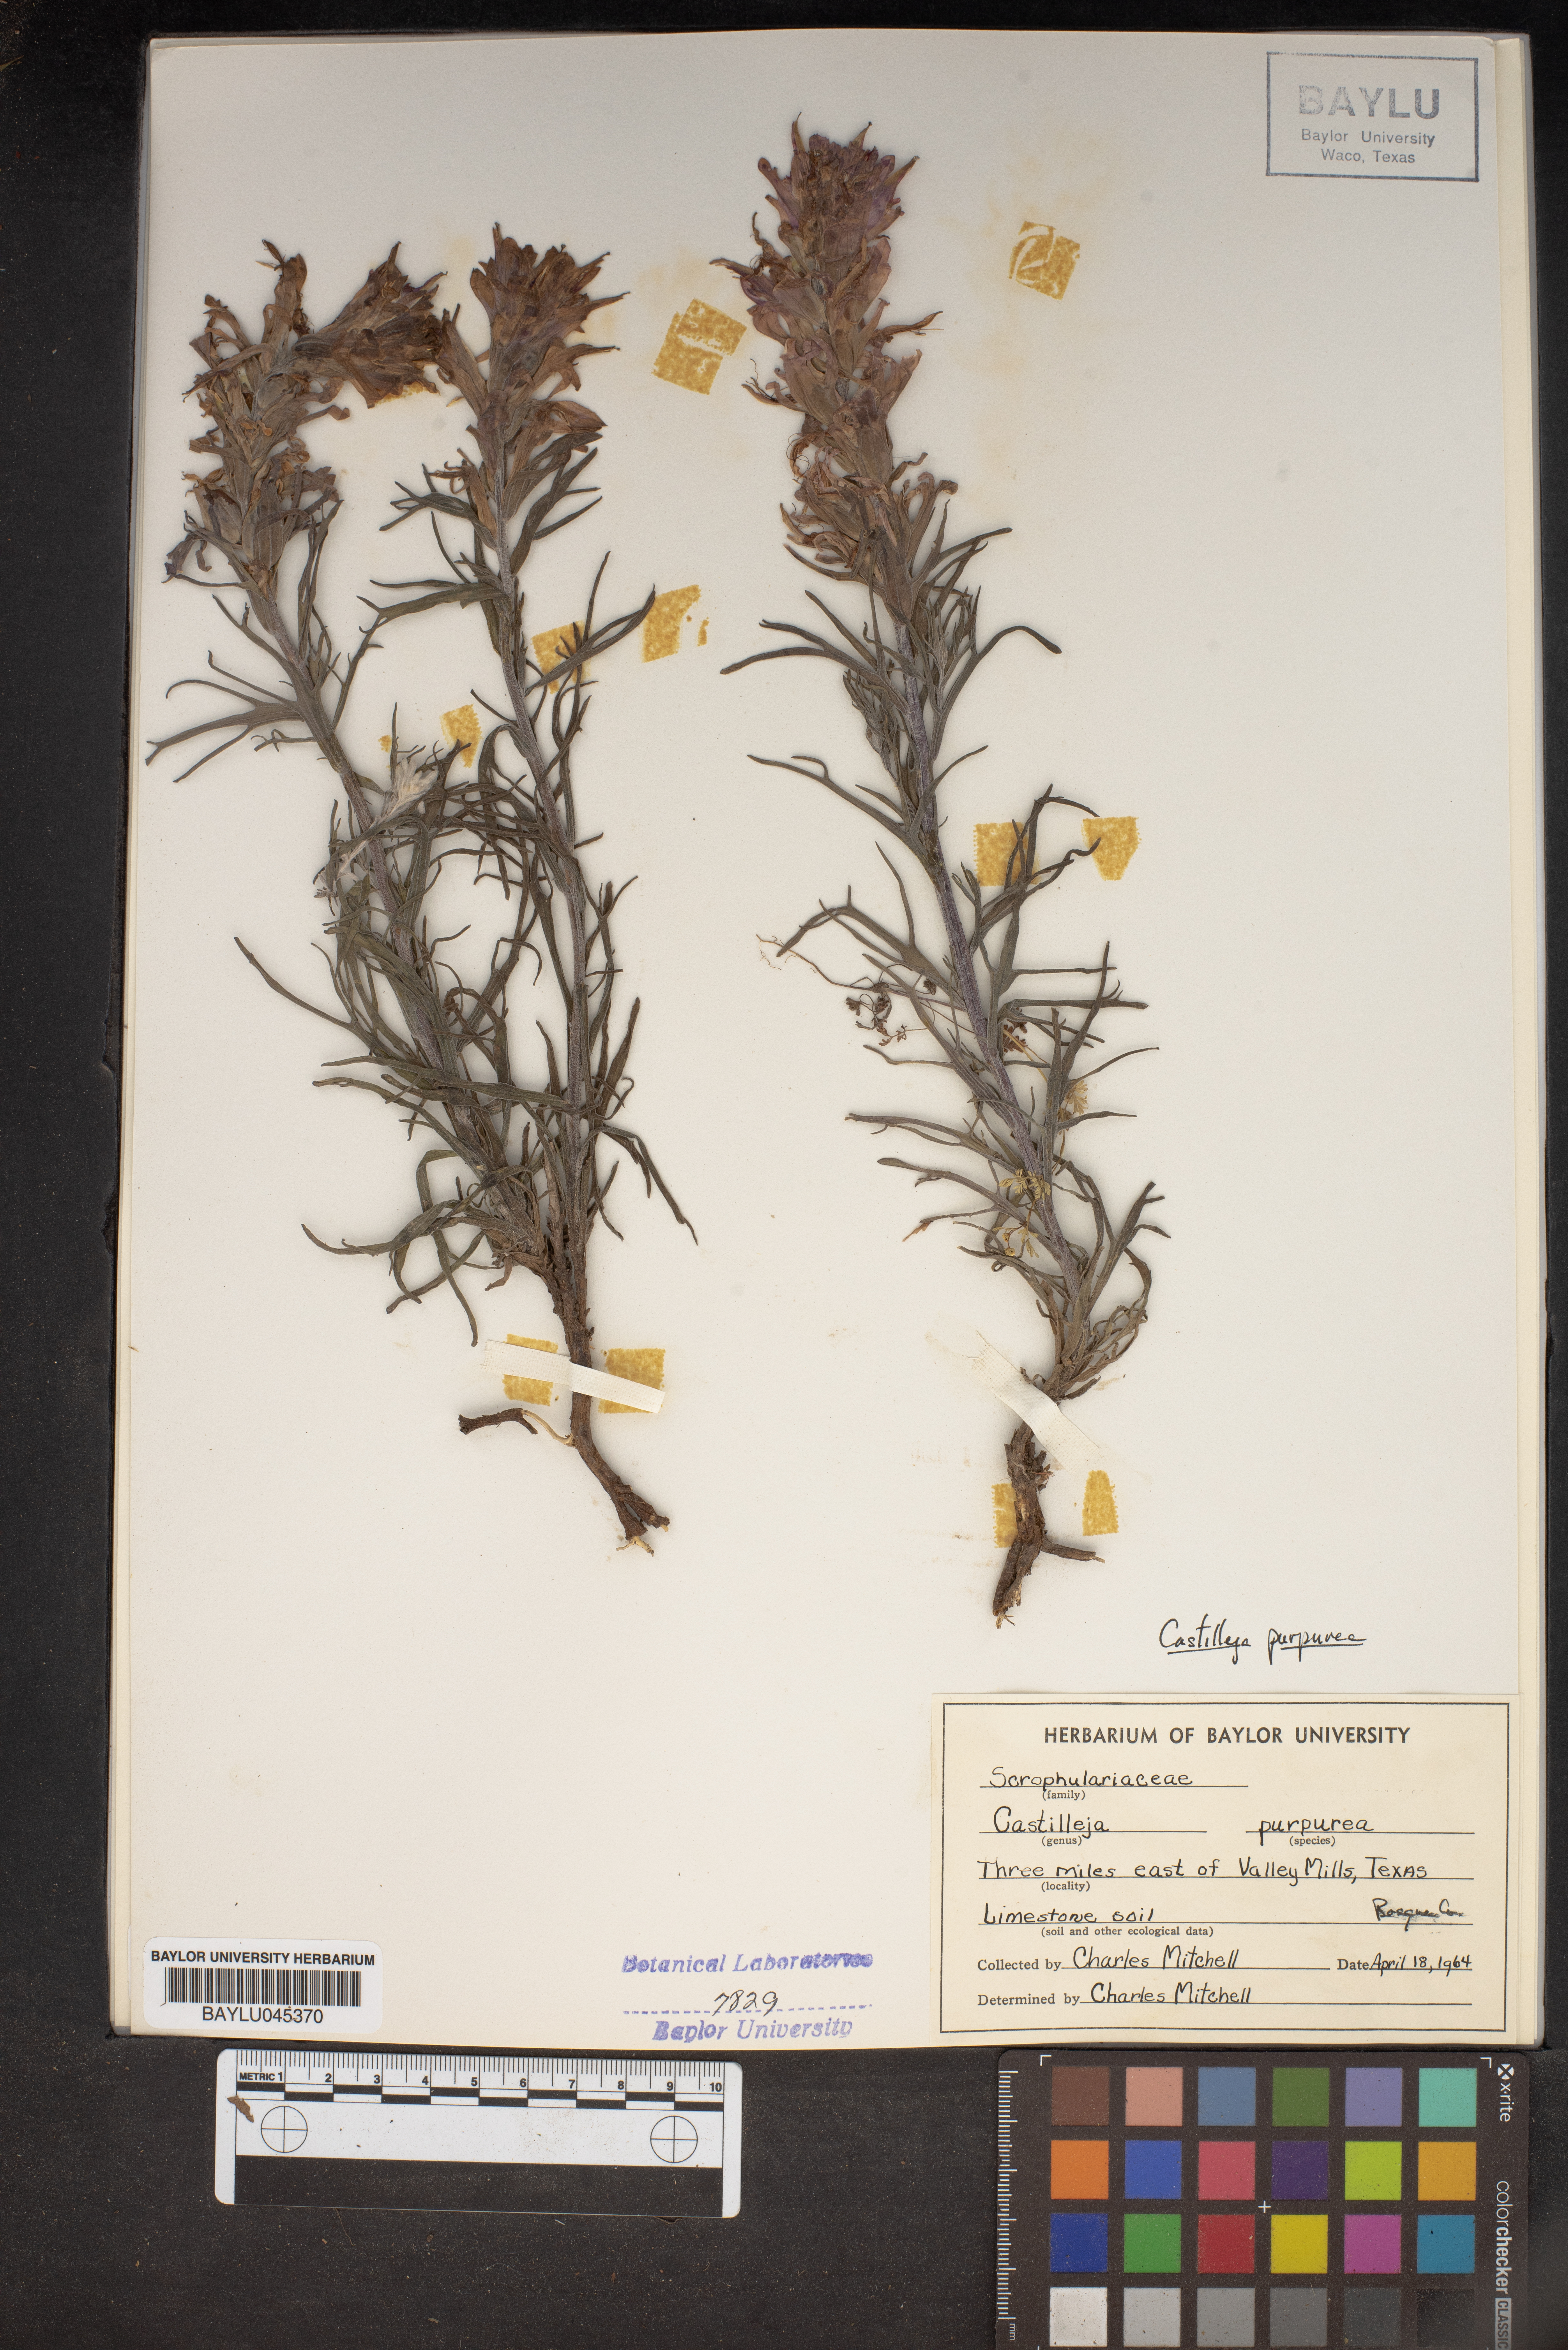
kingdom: Plantae
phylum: Tracheophyta
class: Magnoliopsida
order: Lamiales
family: Orobanchaceae
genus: Castilleja
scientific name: Castilleja purpurea
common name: Plains paintbrush
